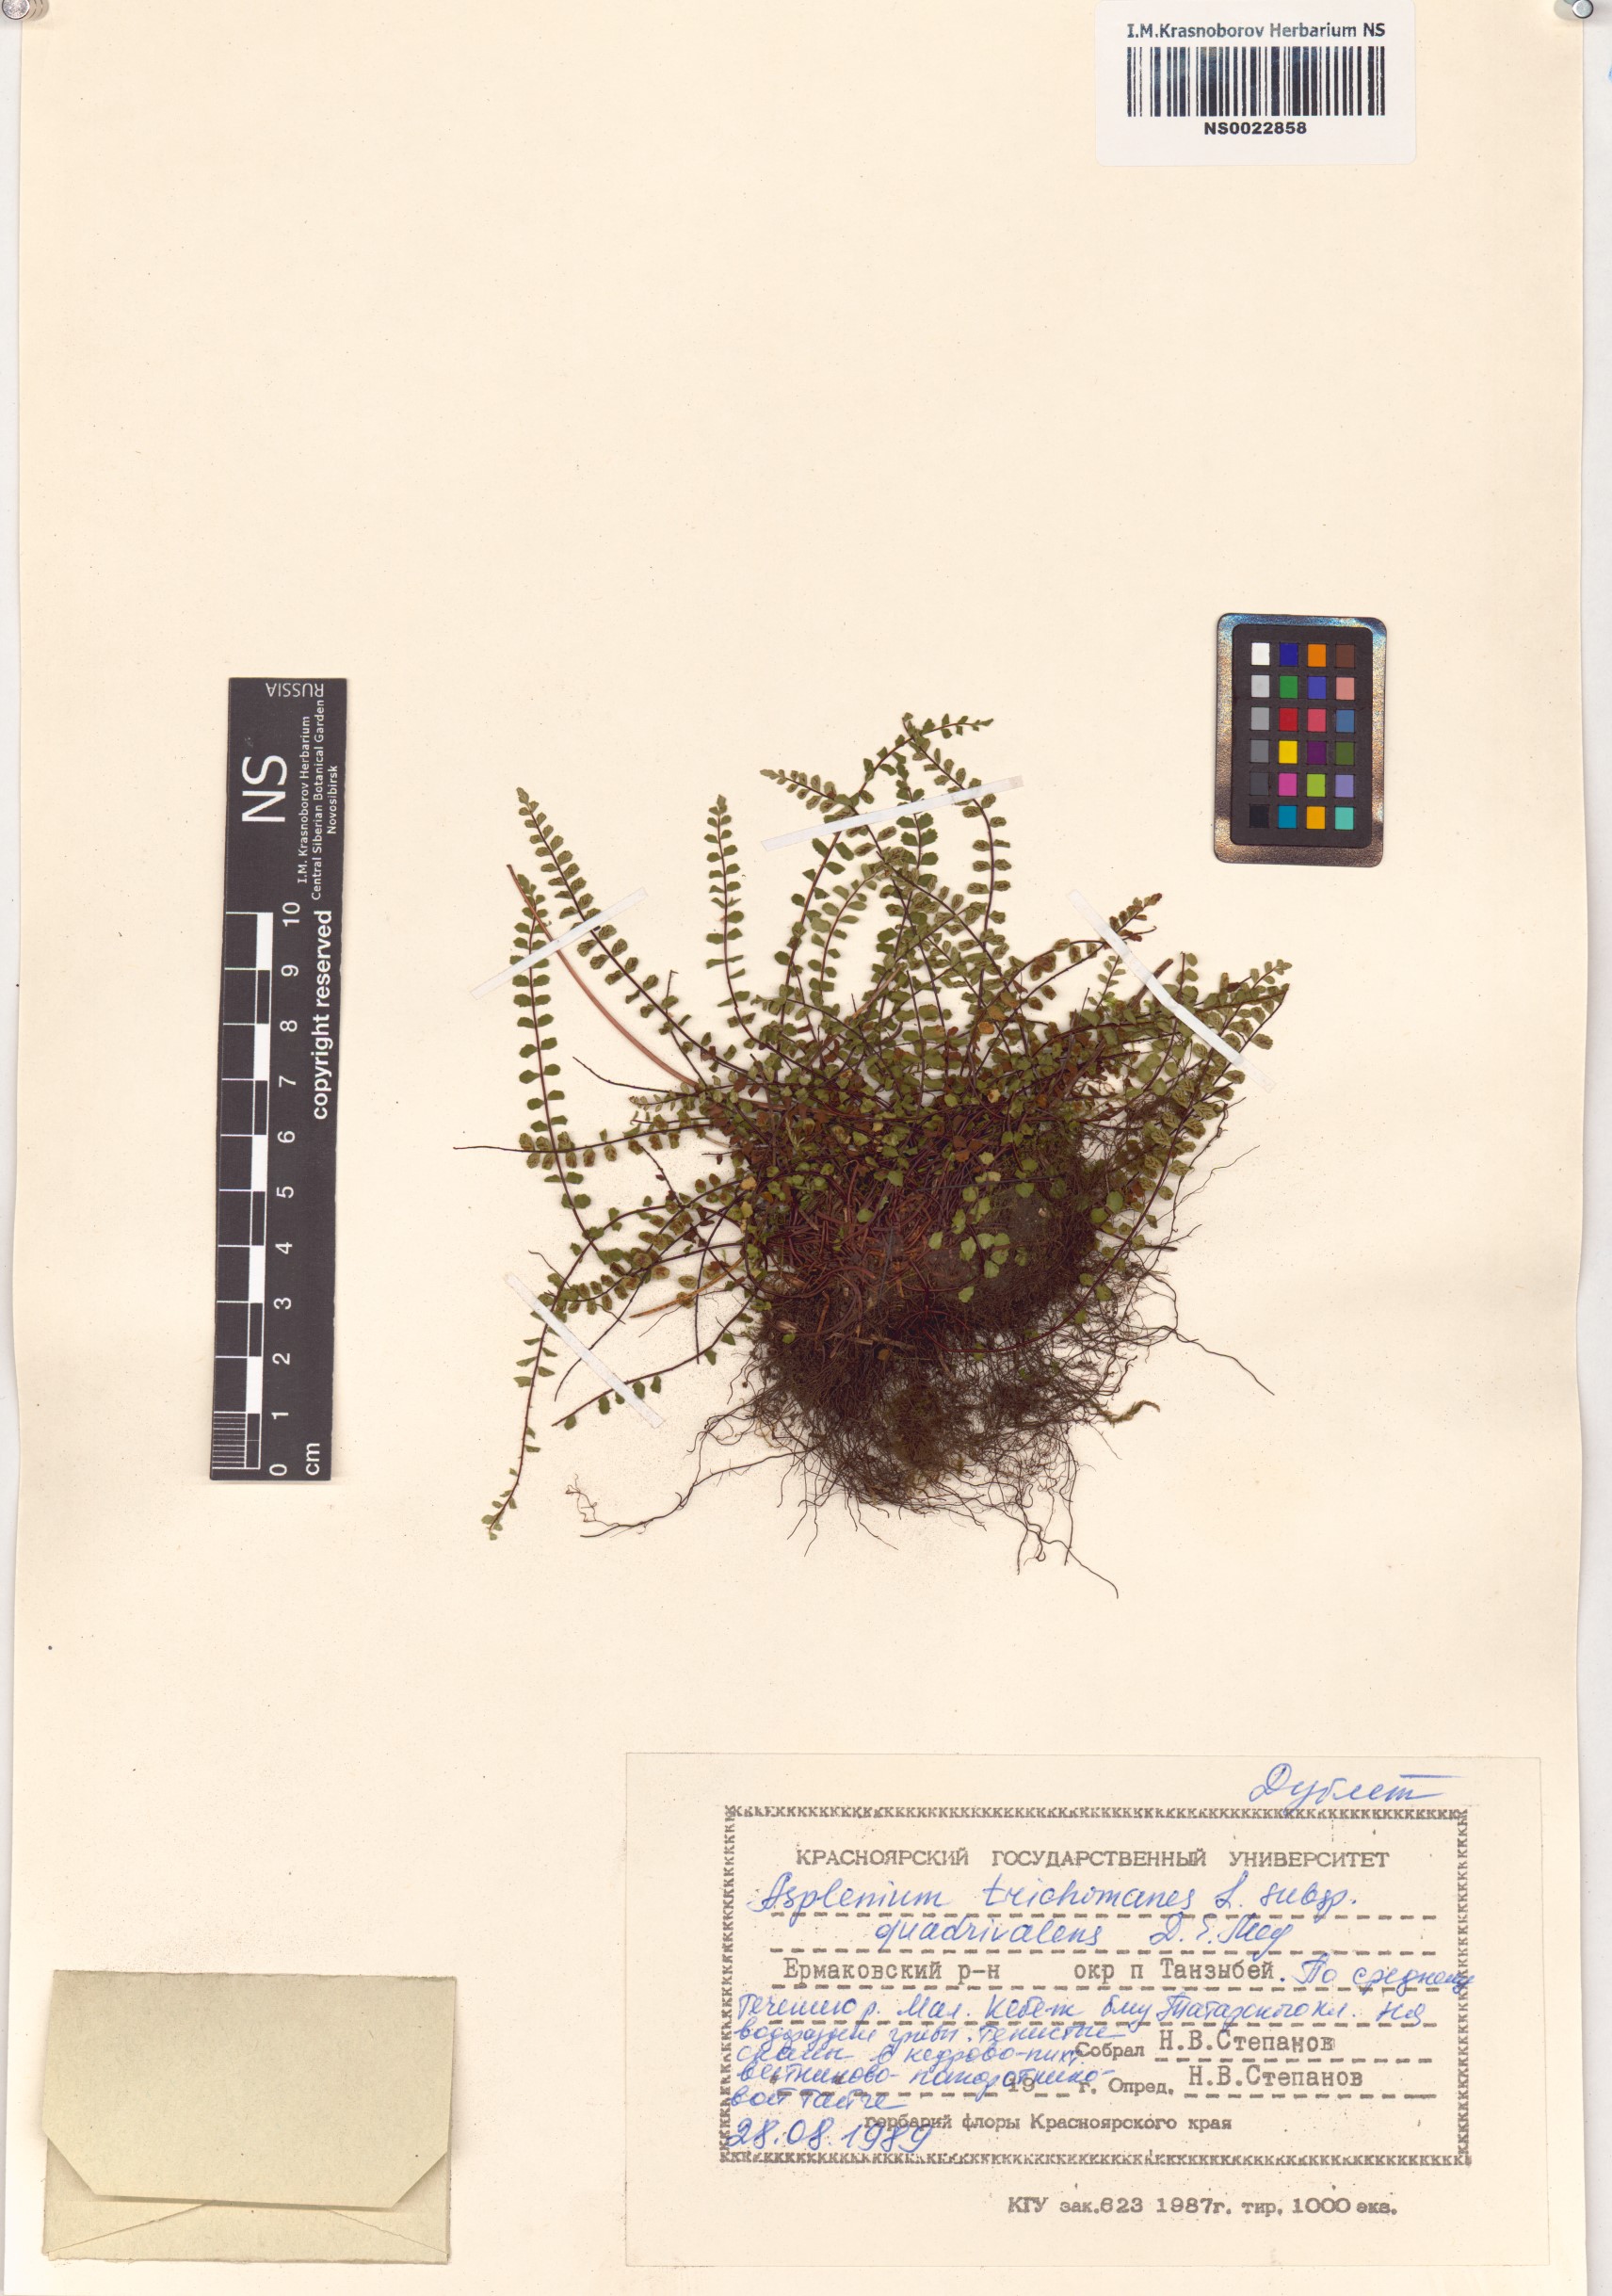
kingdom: Plantae
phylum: Tracheophyta
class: Polypodiopsida
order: Polypodiales
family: Aspleniaceae
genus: Asplenium
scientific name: Asplenium quadrivalens
